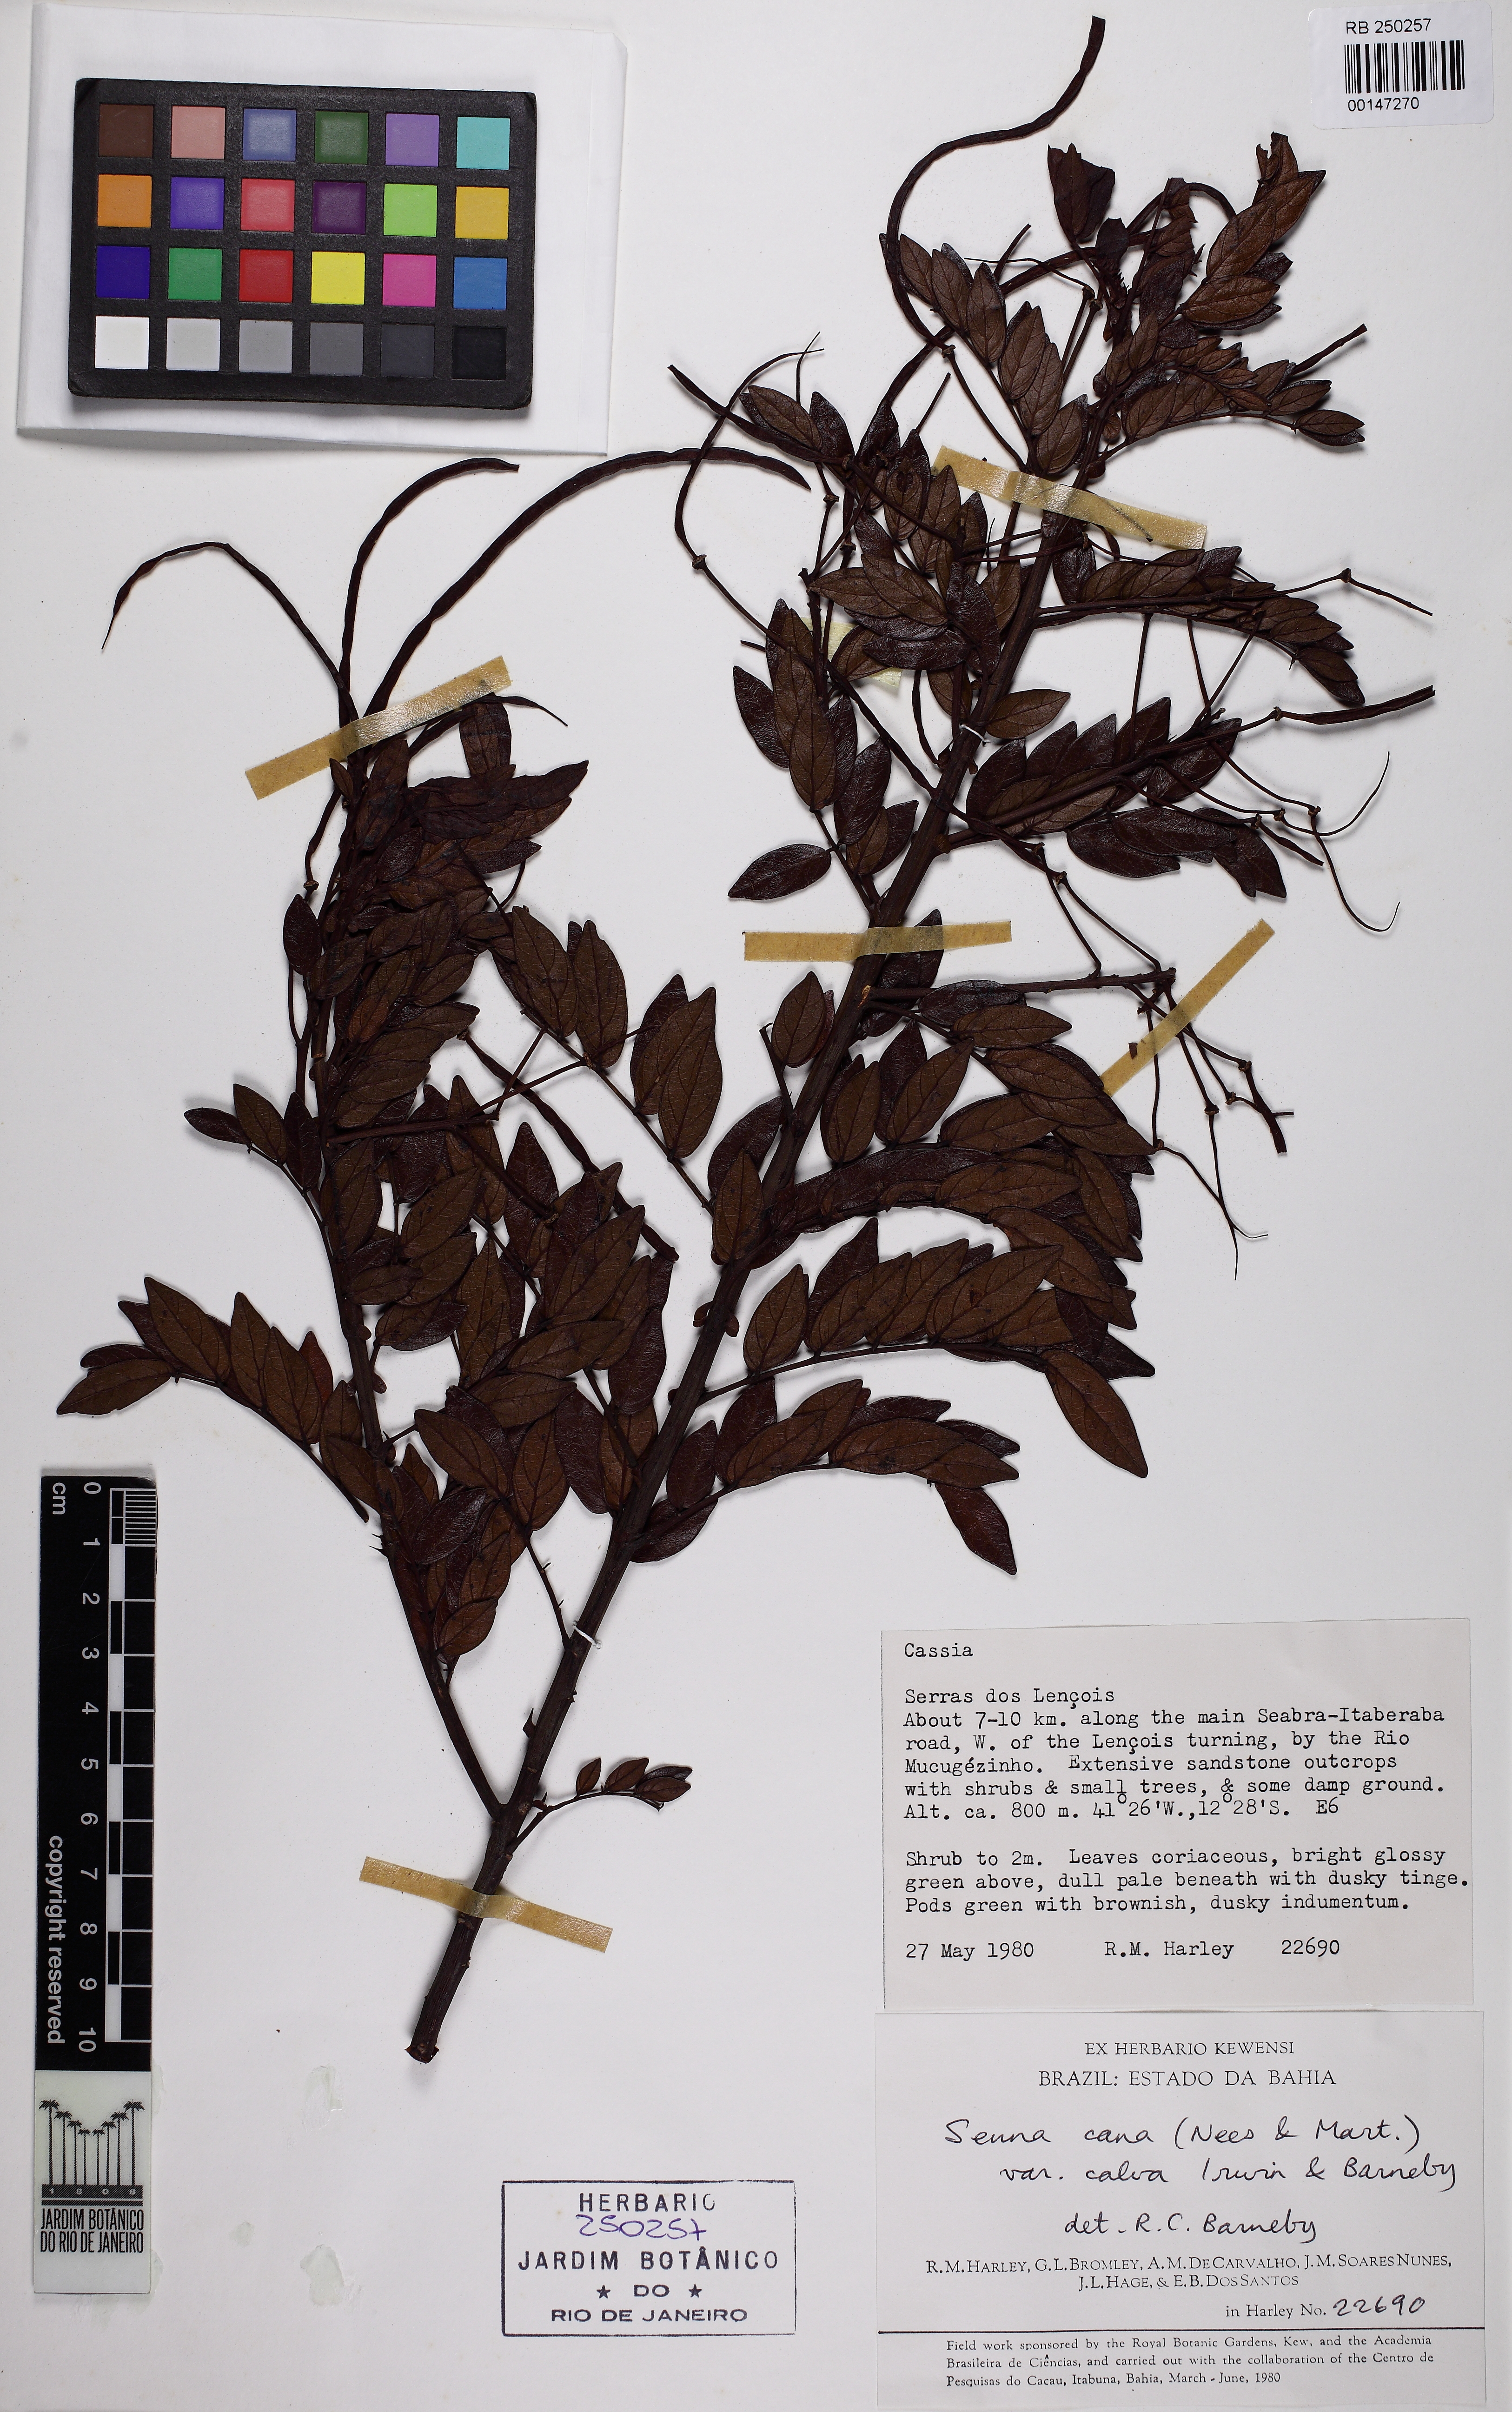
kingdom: Plantae
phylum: Tracheophyta
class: Magnoliopsida
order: Fabales
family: Fabaceae
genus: Senna
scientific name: Senna cana
